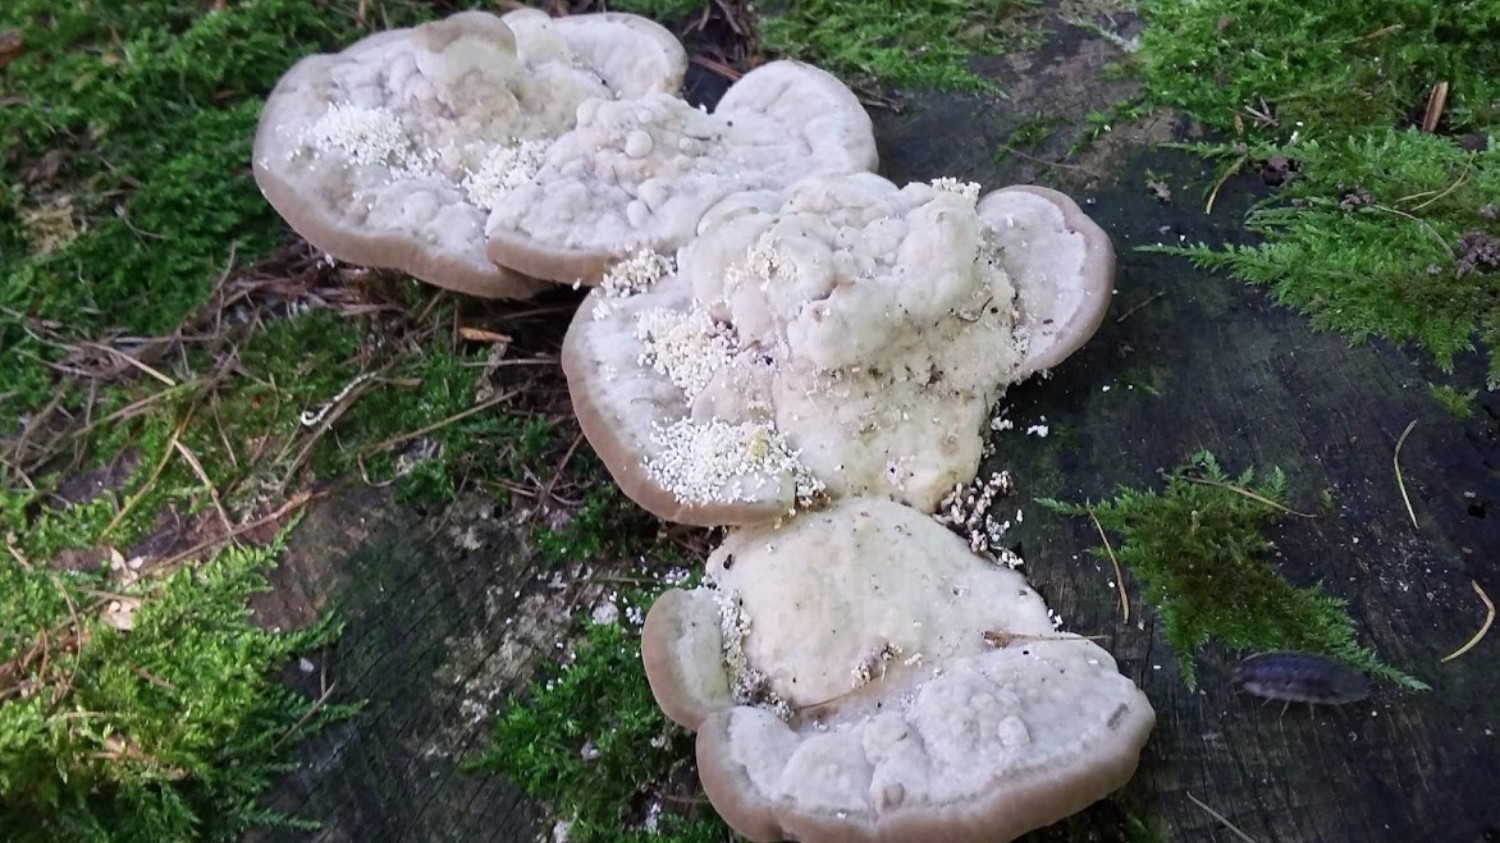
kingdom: Fungi
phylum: Basidiomycota
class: Agaricomycetes
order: Polyporales
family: Polyporaceae
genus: Trametes
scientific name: Trametes gibbosa
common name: puklet læderporesvamp
